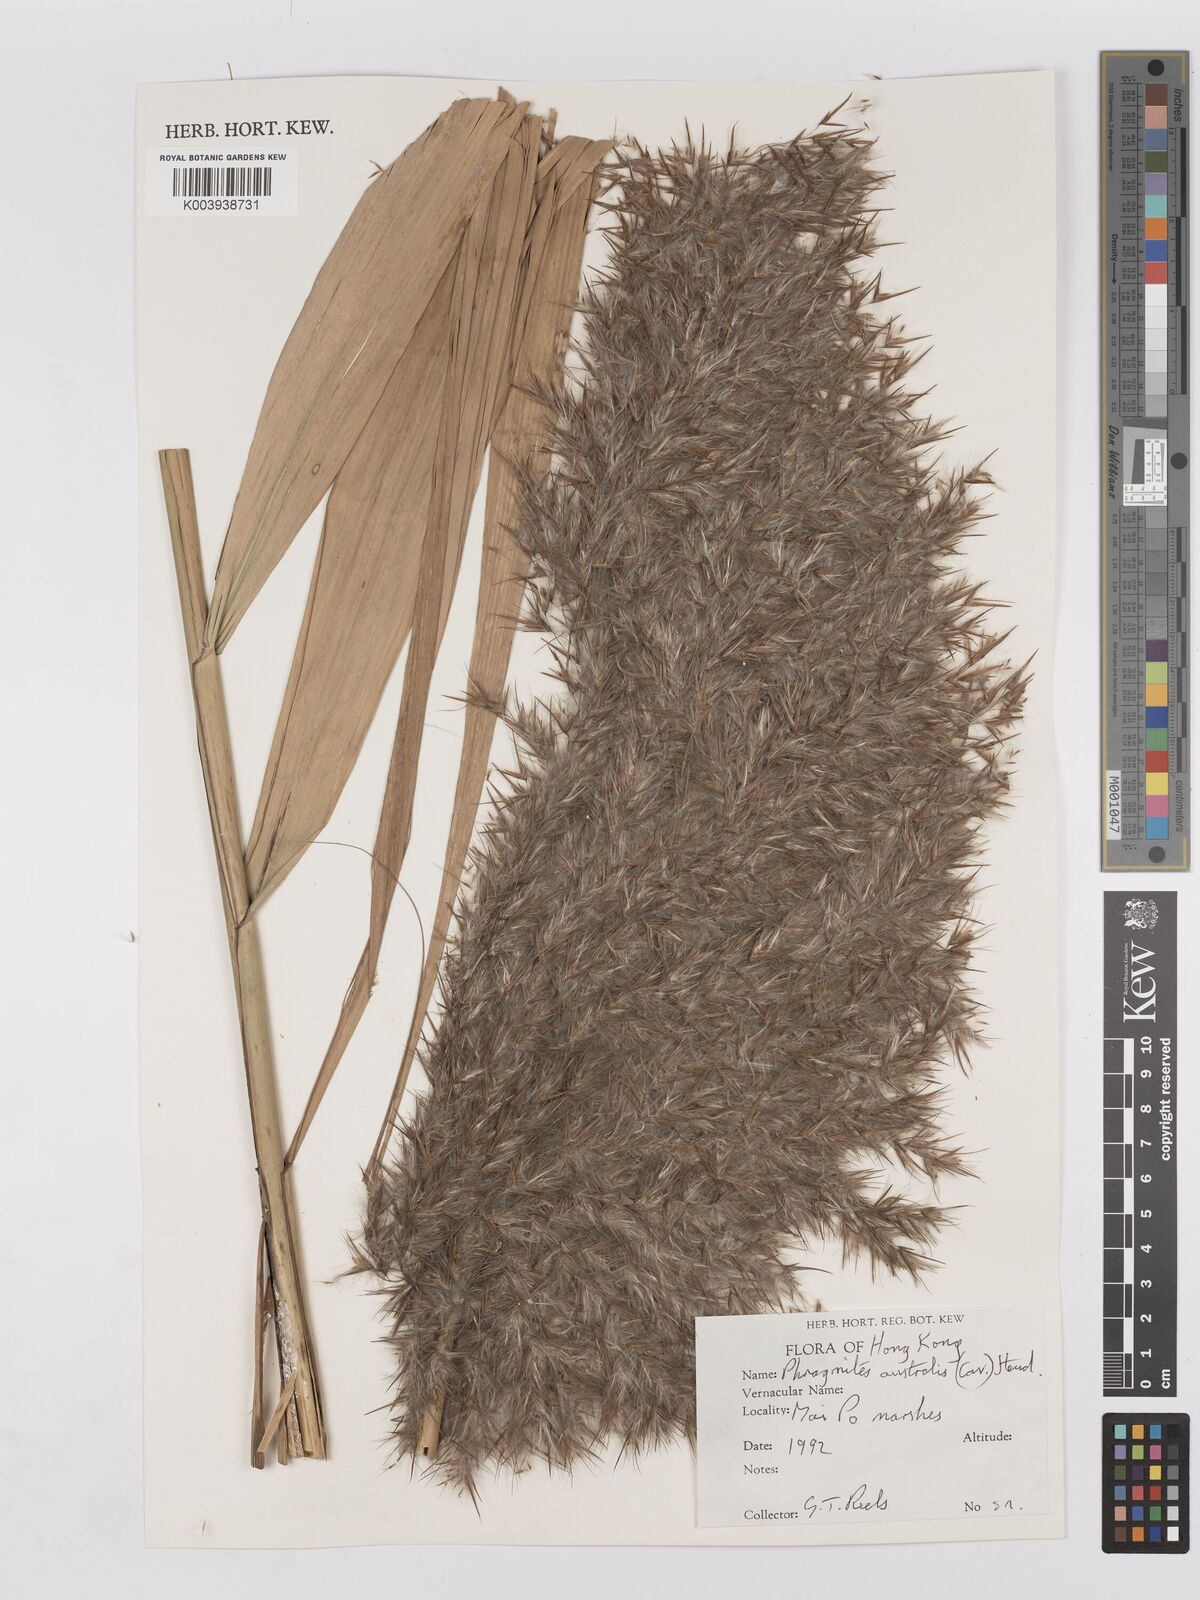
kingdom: Plantae
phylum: Tracheophyta
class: Liliopsida
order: Poales
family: Poaceae
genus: Phragmites
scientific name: Phragmites australis
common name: Common reed
